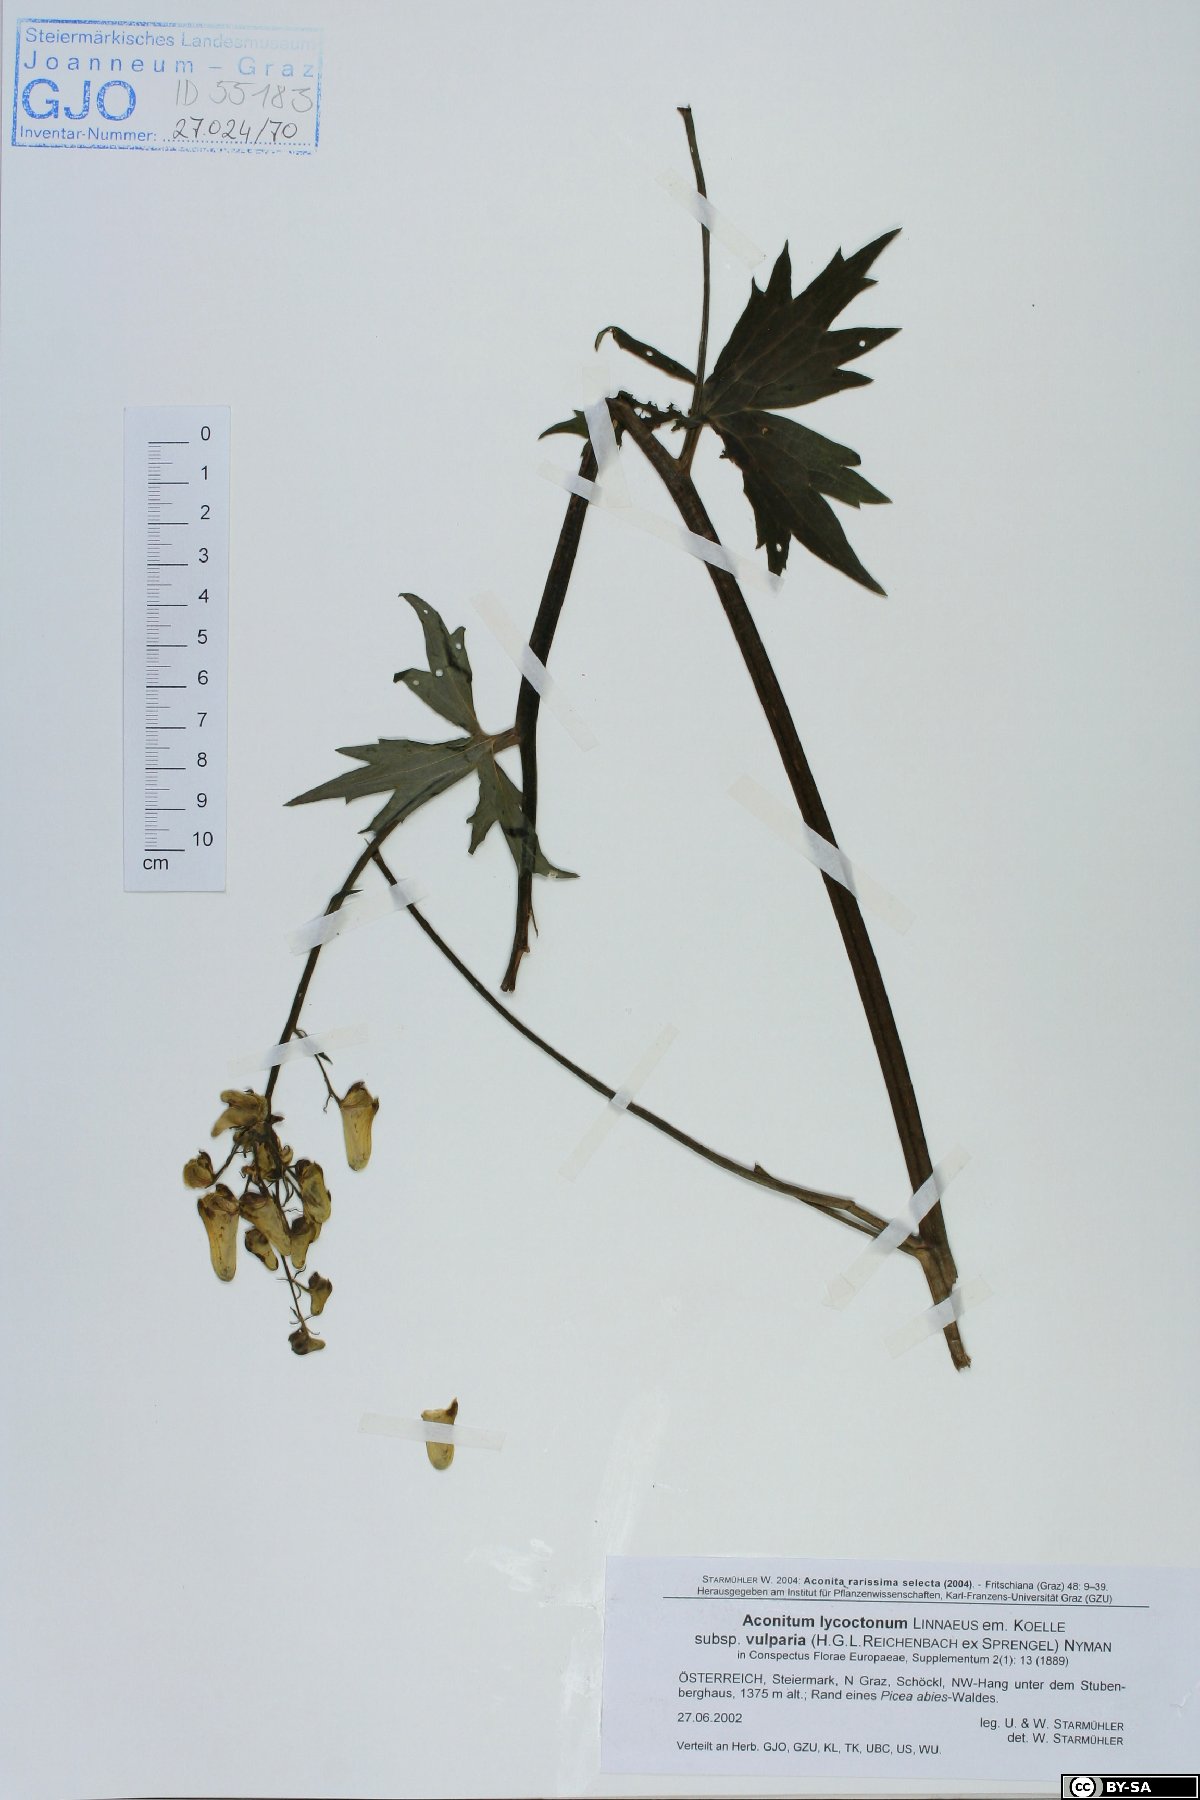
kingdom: Plantae
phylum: Tracheophyta
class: Magnoliopsida
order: Ranunculales
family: Ranunculaceae
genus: Aconitum
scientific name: Aconitum lycoctonum
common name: Wolf's-bane
